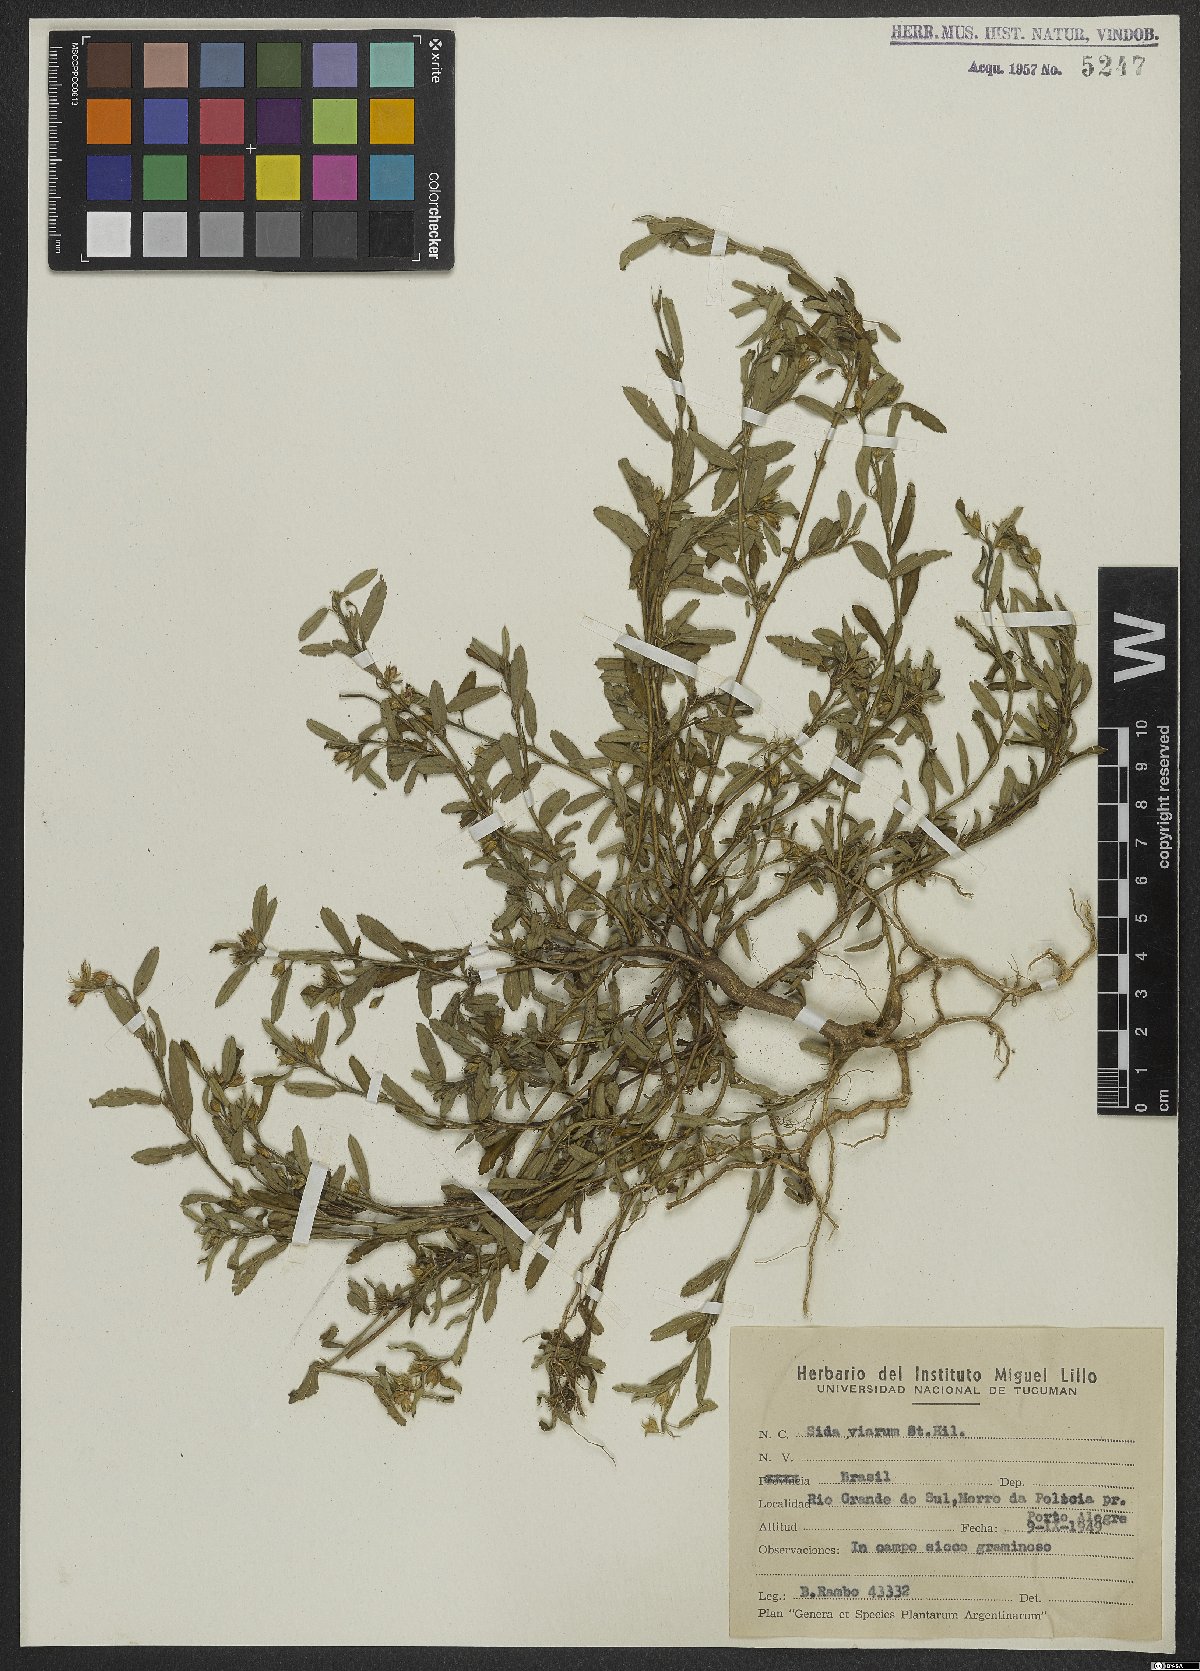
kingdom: Plantae
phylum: Tracheophyta
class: Magnoliopsida
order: Malvales
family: Malvaceae
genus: Sida
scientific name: Sida viarum
